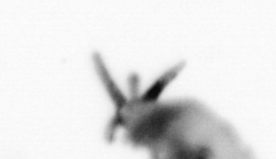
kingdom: Animalia
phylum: Arthropoda
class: Copepoda
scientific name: Copepoda
